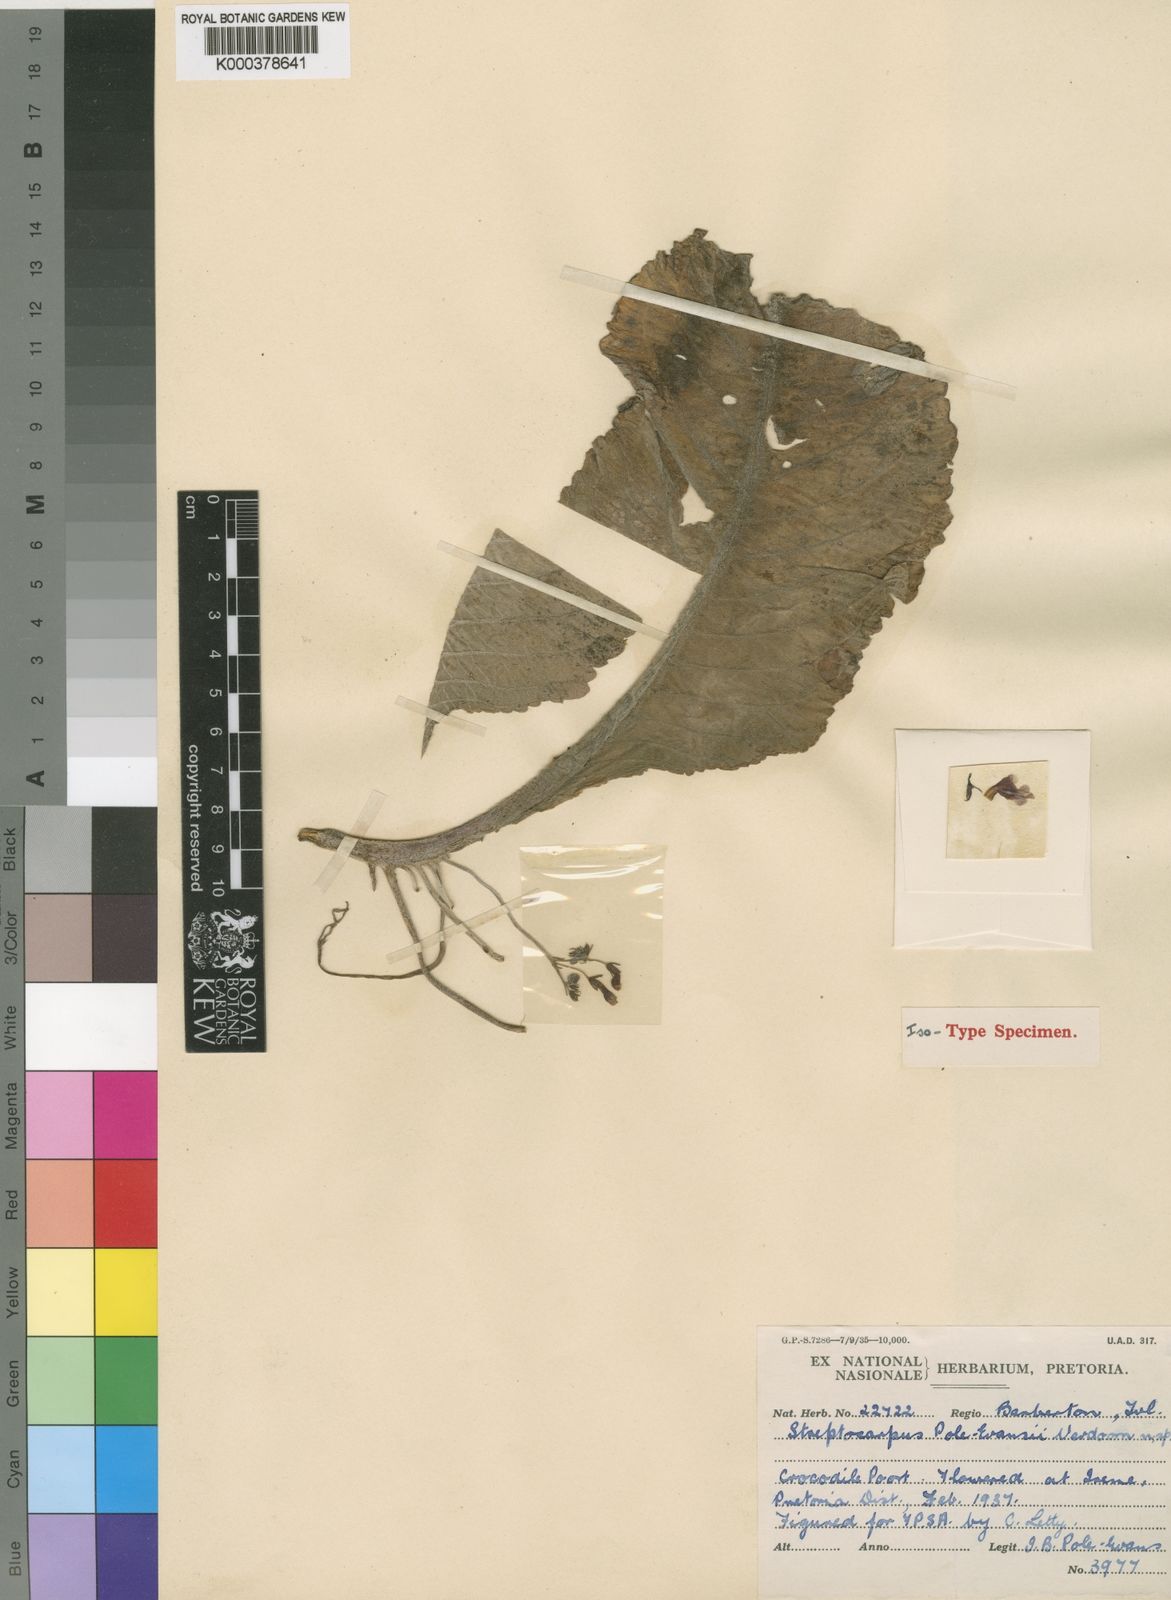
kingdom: Plantae
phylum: Tracheophyta
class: Magnoliopsida
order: Lamiales
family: Gesneriaceae
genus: Streptocarpus
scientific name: Streptocarpus pole-evansii
